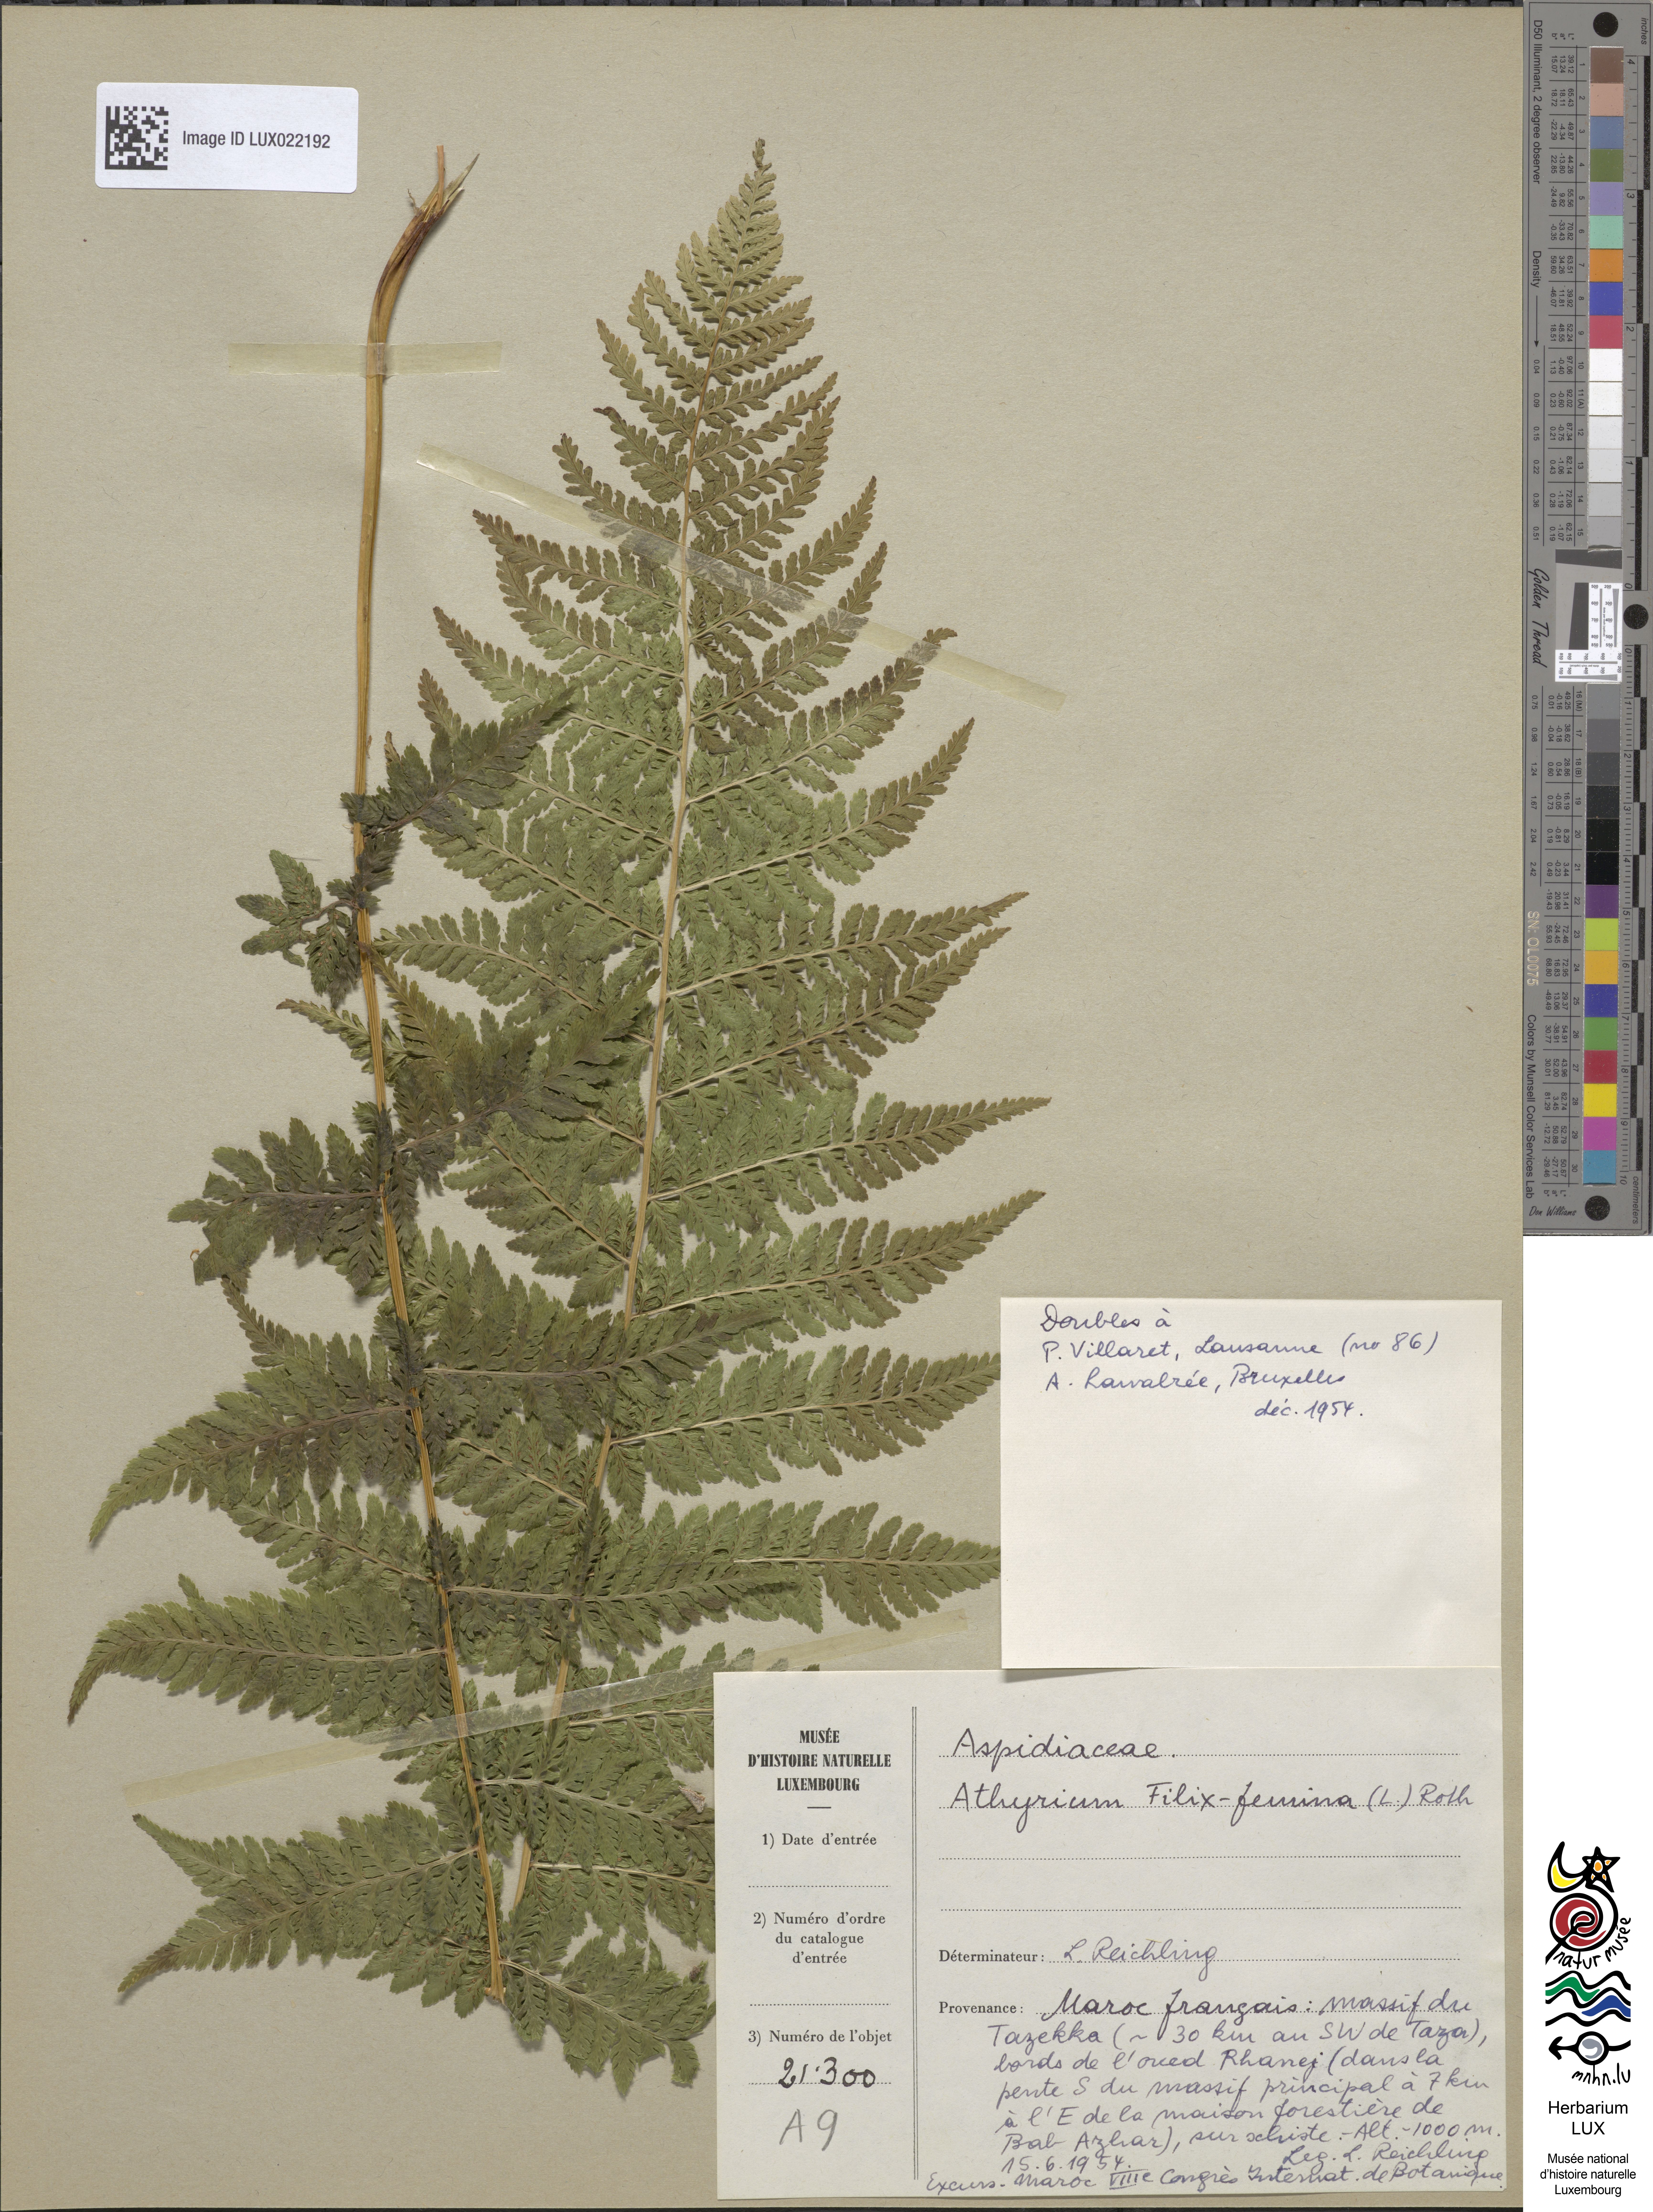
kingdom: Plantae
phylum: Tracheophyta
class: Polypodiopsida
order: Polypodiales
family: Athyriaceae
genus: Athyrium
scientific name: Athyrium filix-femina
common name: Lady fern
